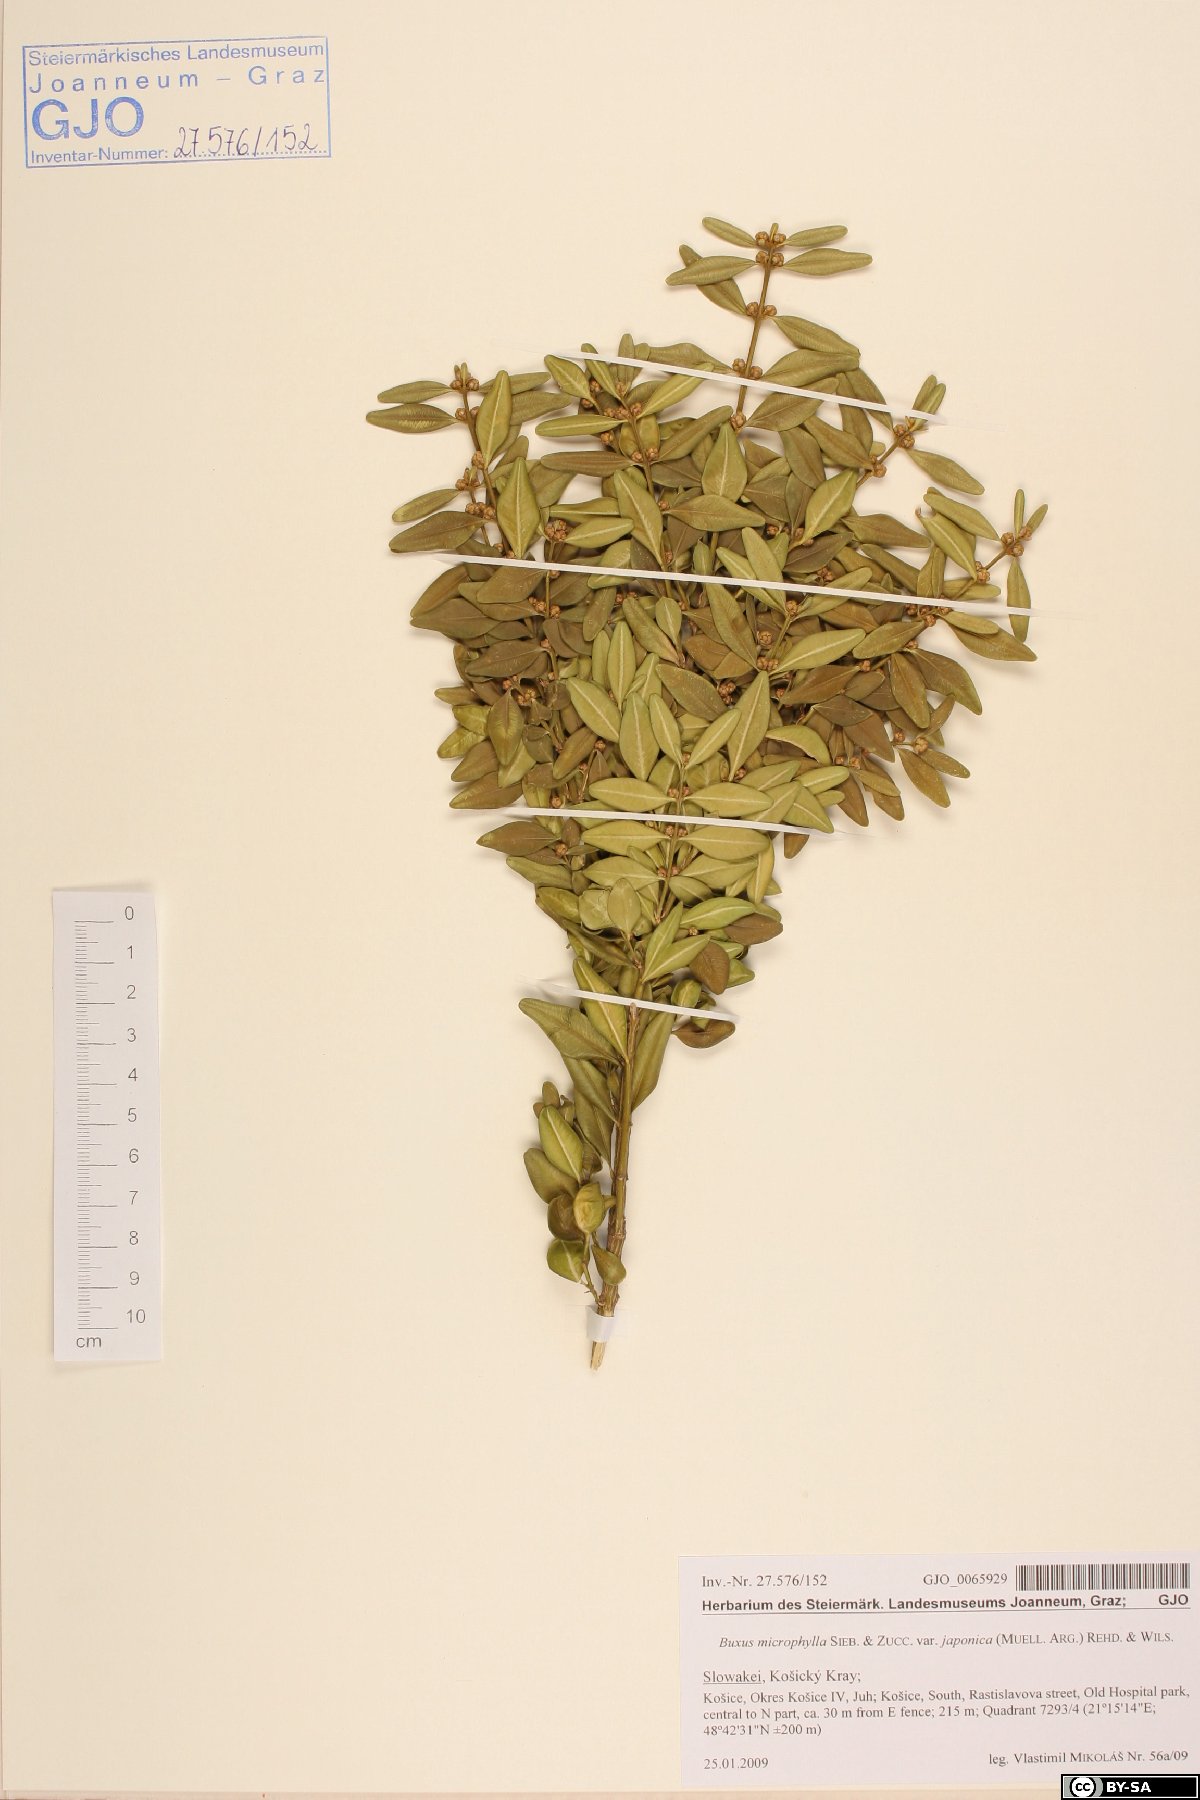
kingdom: Plantae
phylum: Tracheophyta
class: Magnoliopsida
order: Buxales
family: Buxaceae
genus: Buxus
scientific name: Buxus microphylla
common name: Littleleaf boxwood
